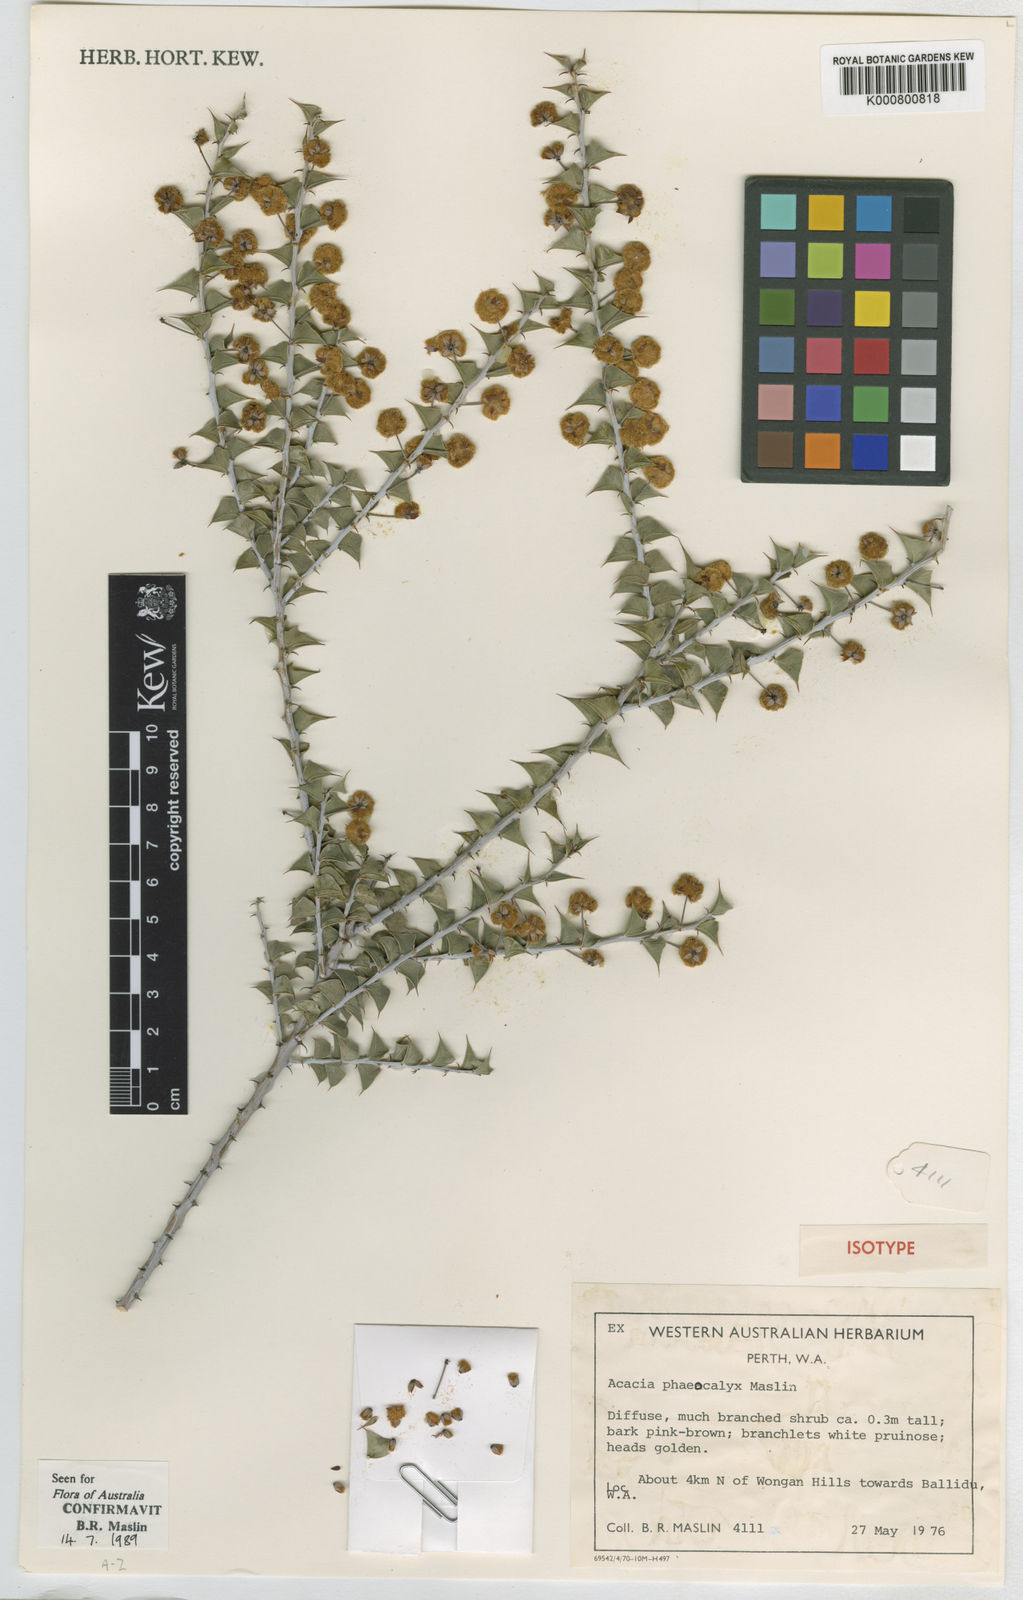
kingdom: Plantae
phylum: Tracheophyta
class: Magnoliopsida
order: Fabales
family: Fabaceae
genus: Acacia
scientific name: Acacia phaeocalyx
